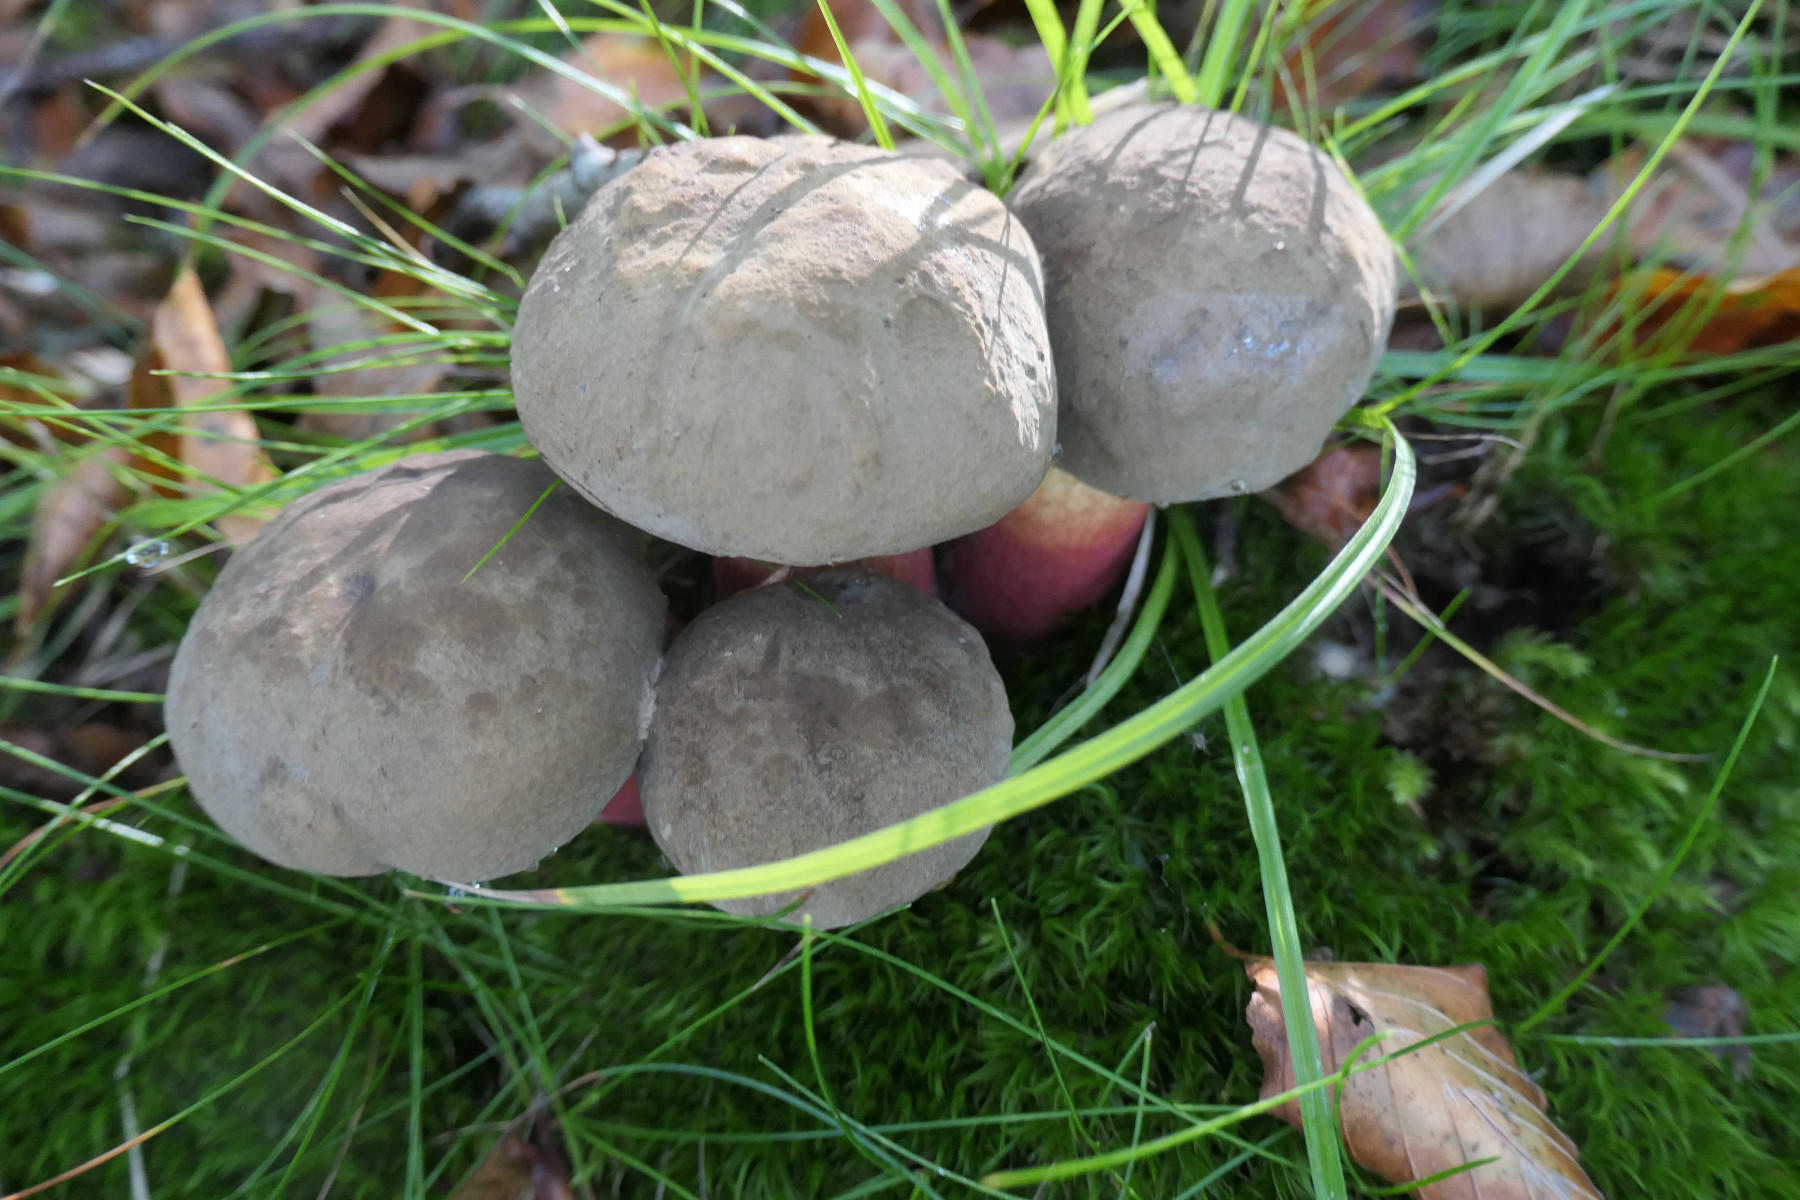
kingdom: Fungi
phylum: Basidiomycota
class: Agaricomycetes
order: Boletales
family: Boletaceae
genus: Caloboletus
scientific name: Caloboletus calopus
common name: skønfodet rørhat
